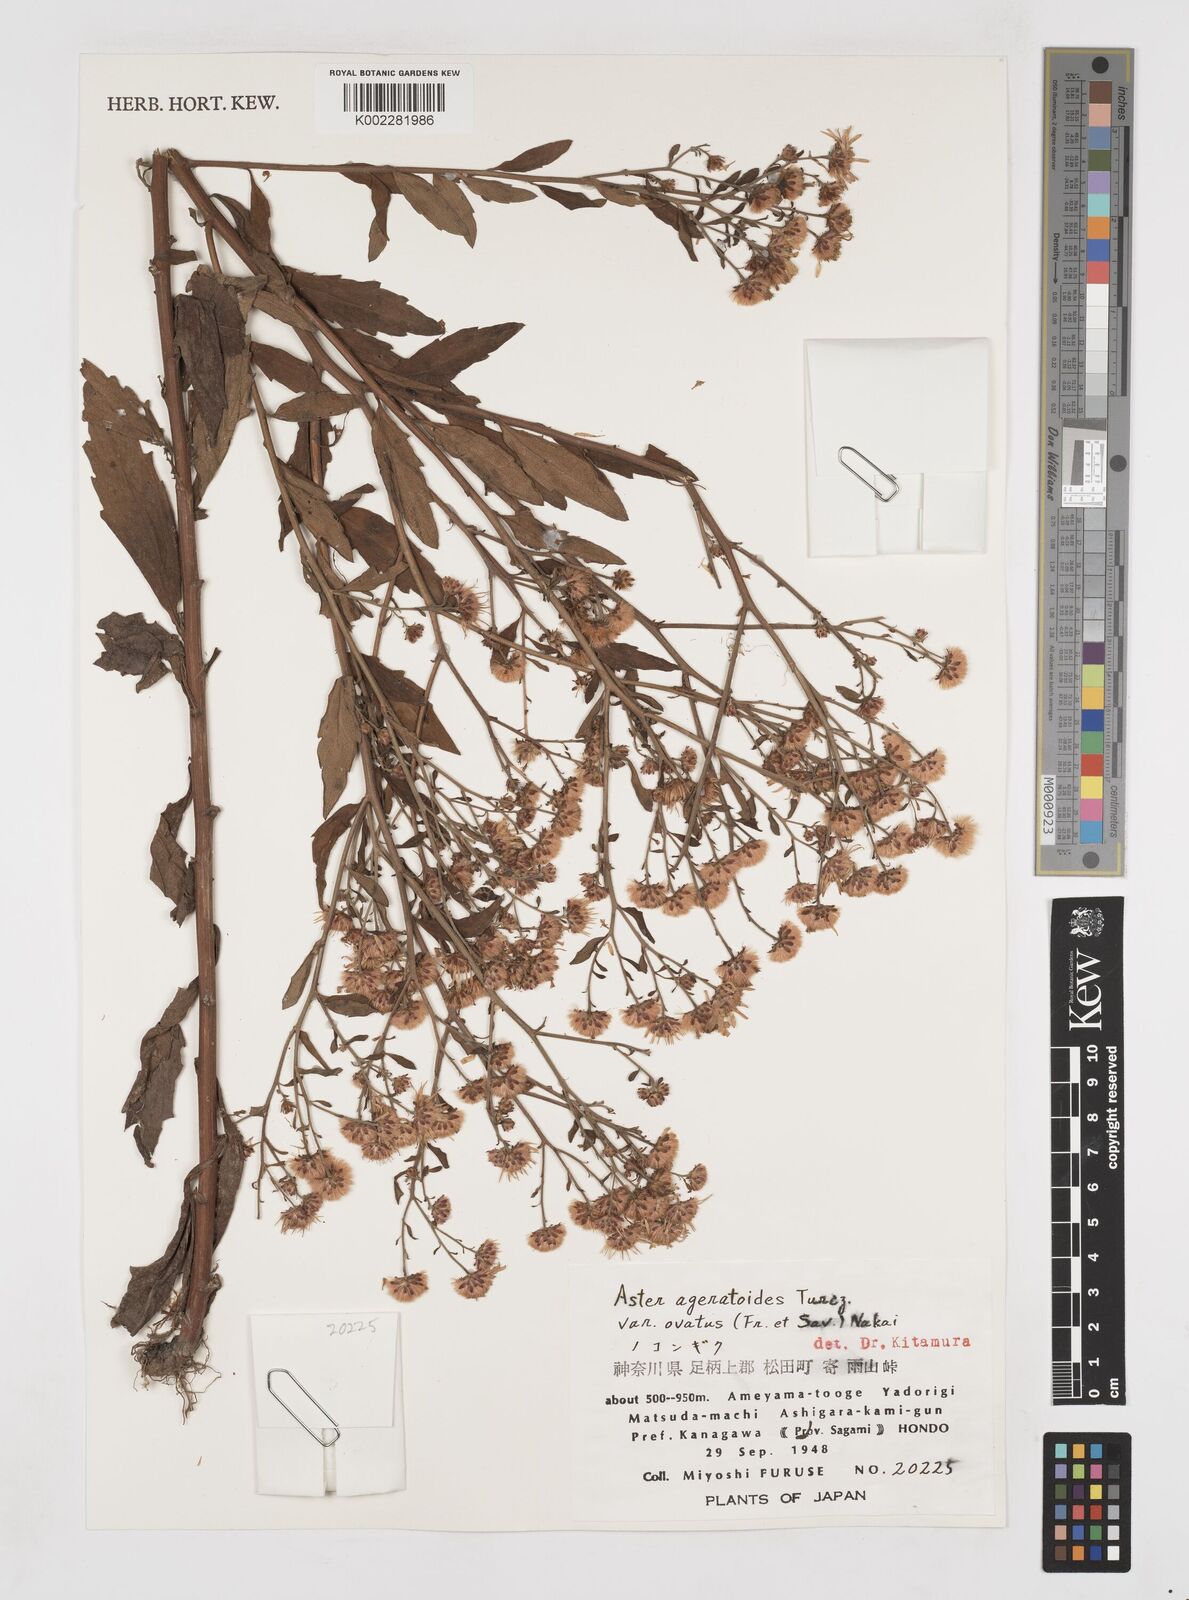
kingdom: Plantae
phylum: Tracheophyta
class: Magnoliopsida
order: Asterales
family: Asteraceae
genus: Galatella
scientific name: Galatella sedifolia
